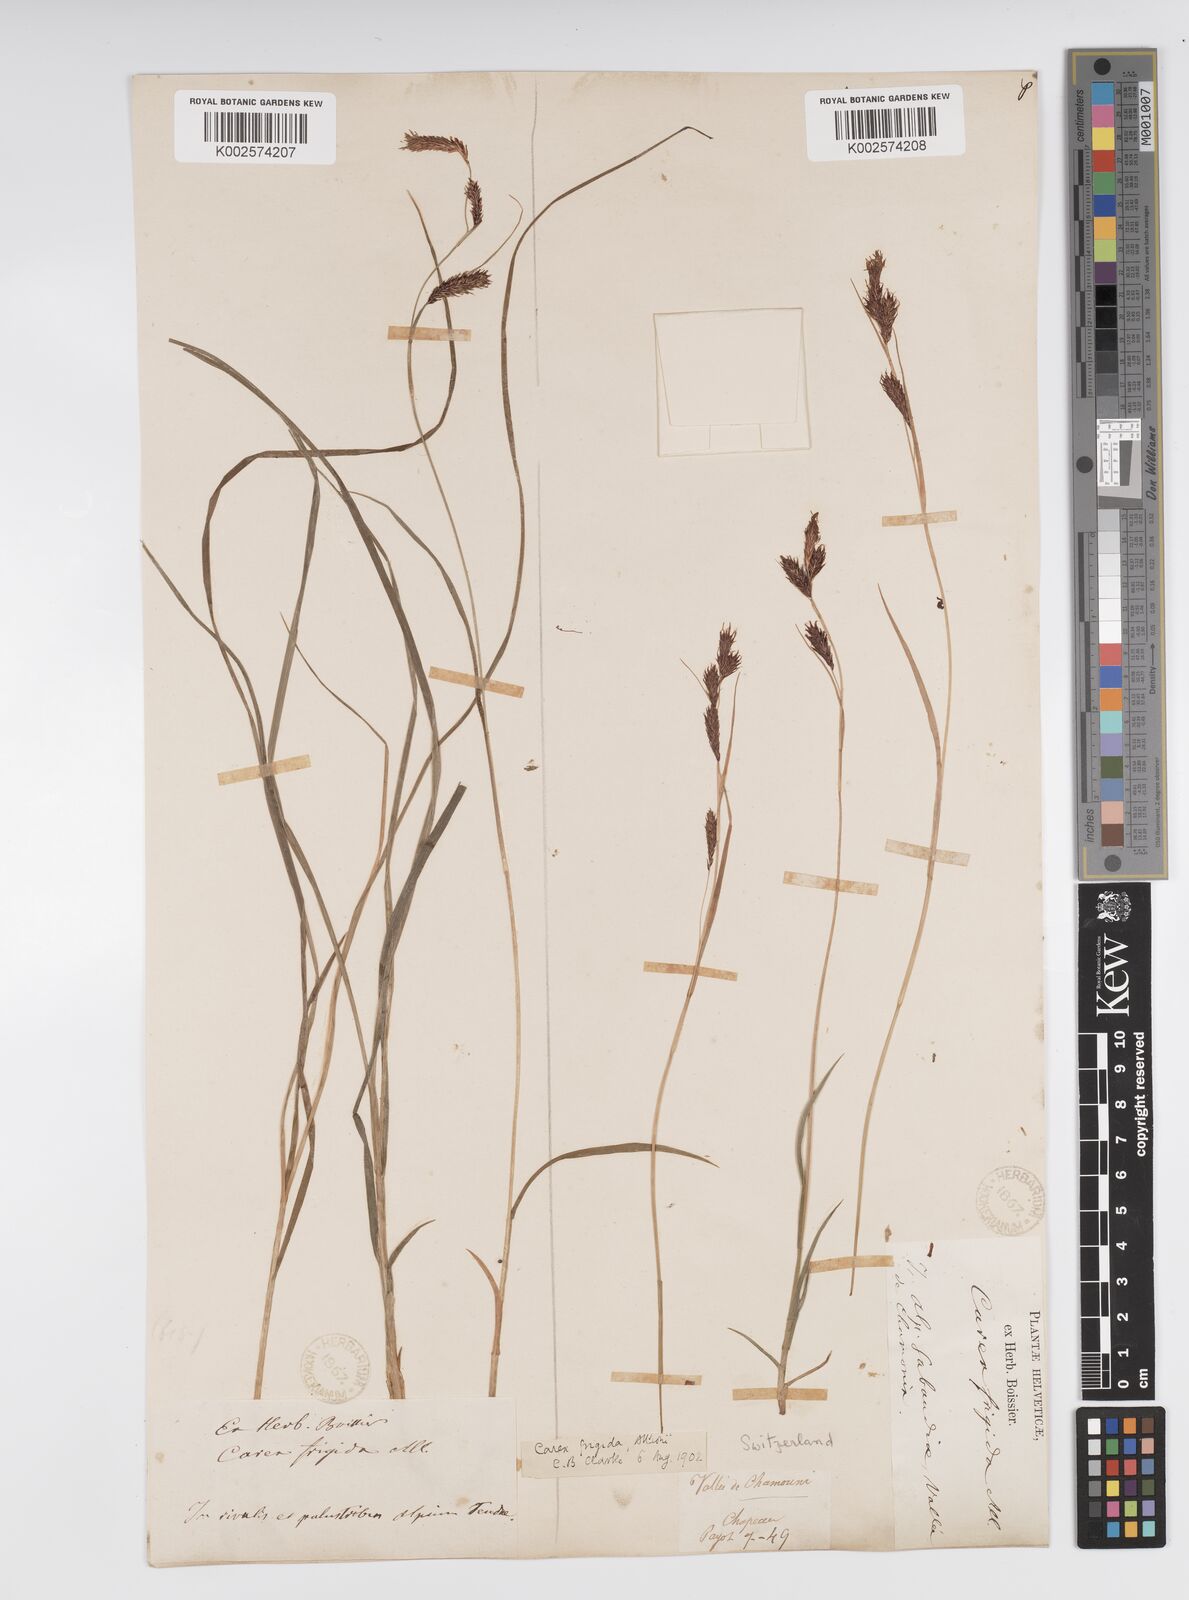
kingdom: Plantae
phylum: Tracheophyta
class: Liliopsida
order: Poales
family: Cyperaceae
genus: Carex
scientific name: Carex frigida
